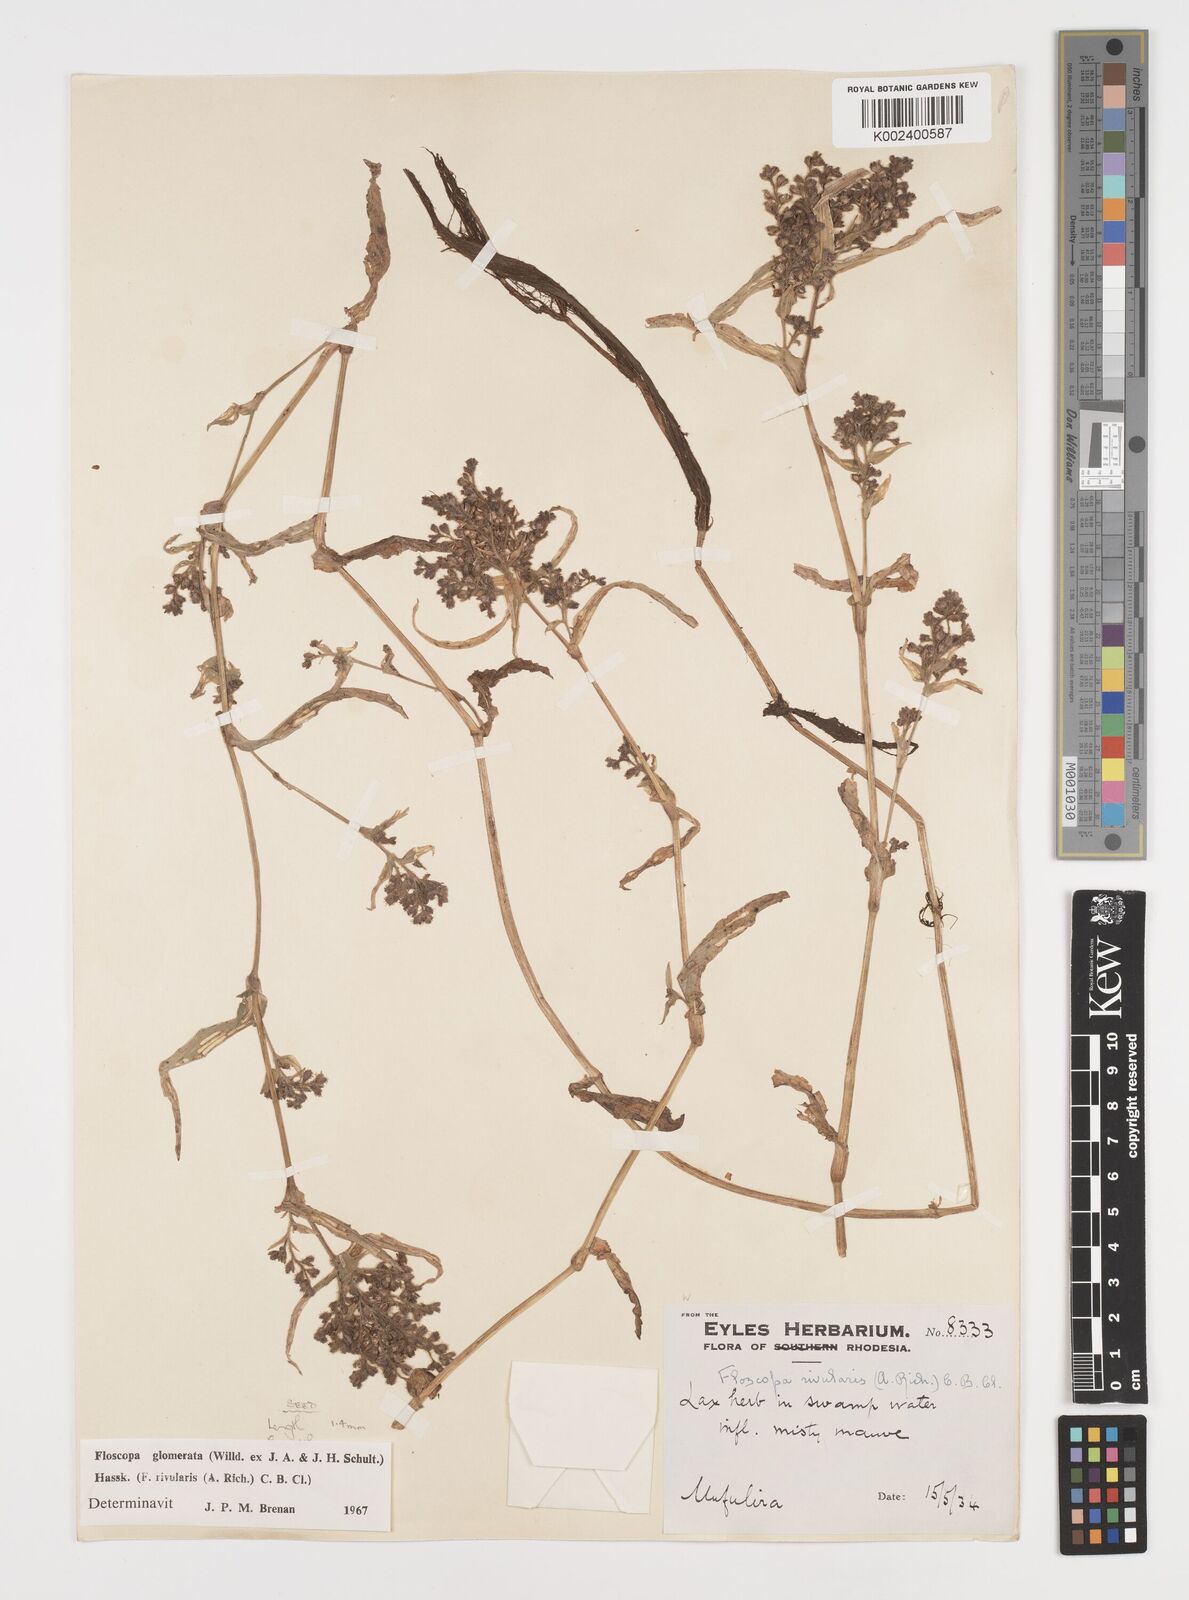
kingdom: Plantae
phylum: Tracheophyta
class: Liliopsida
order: Commelinales
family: Commelinaceae
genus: Floscopa
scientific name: Floscopa glomerata
